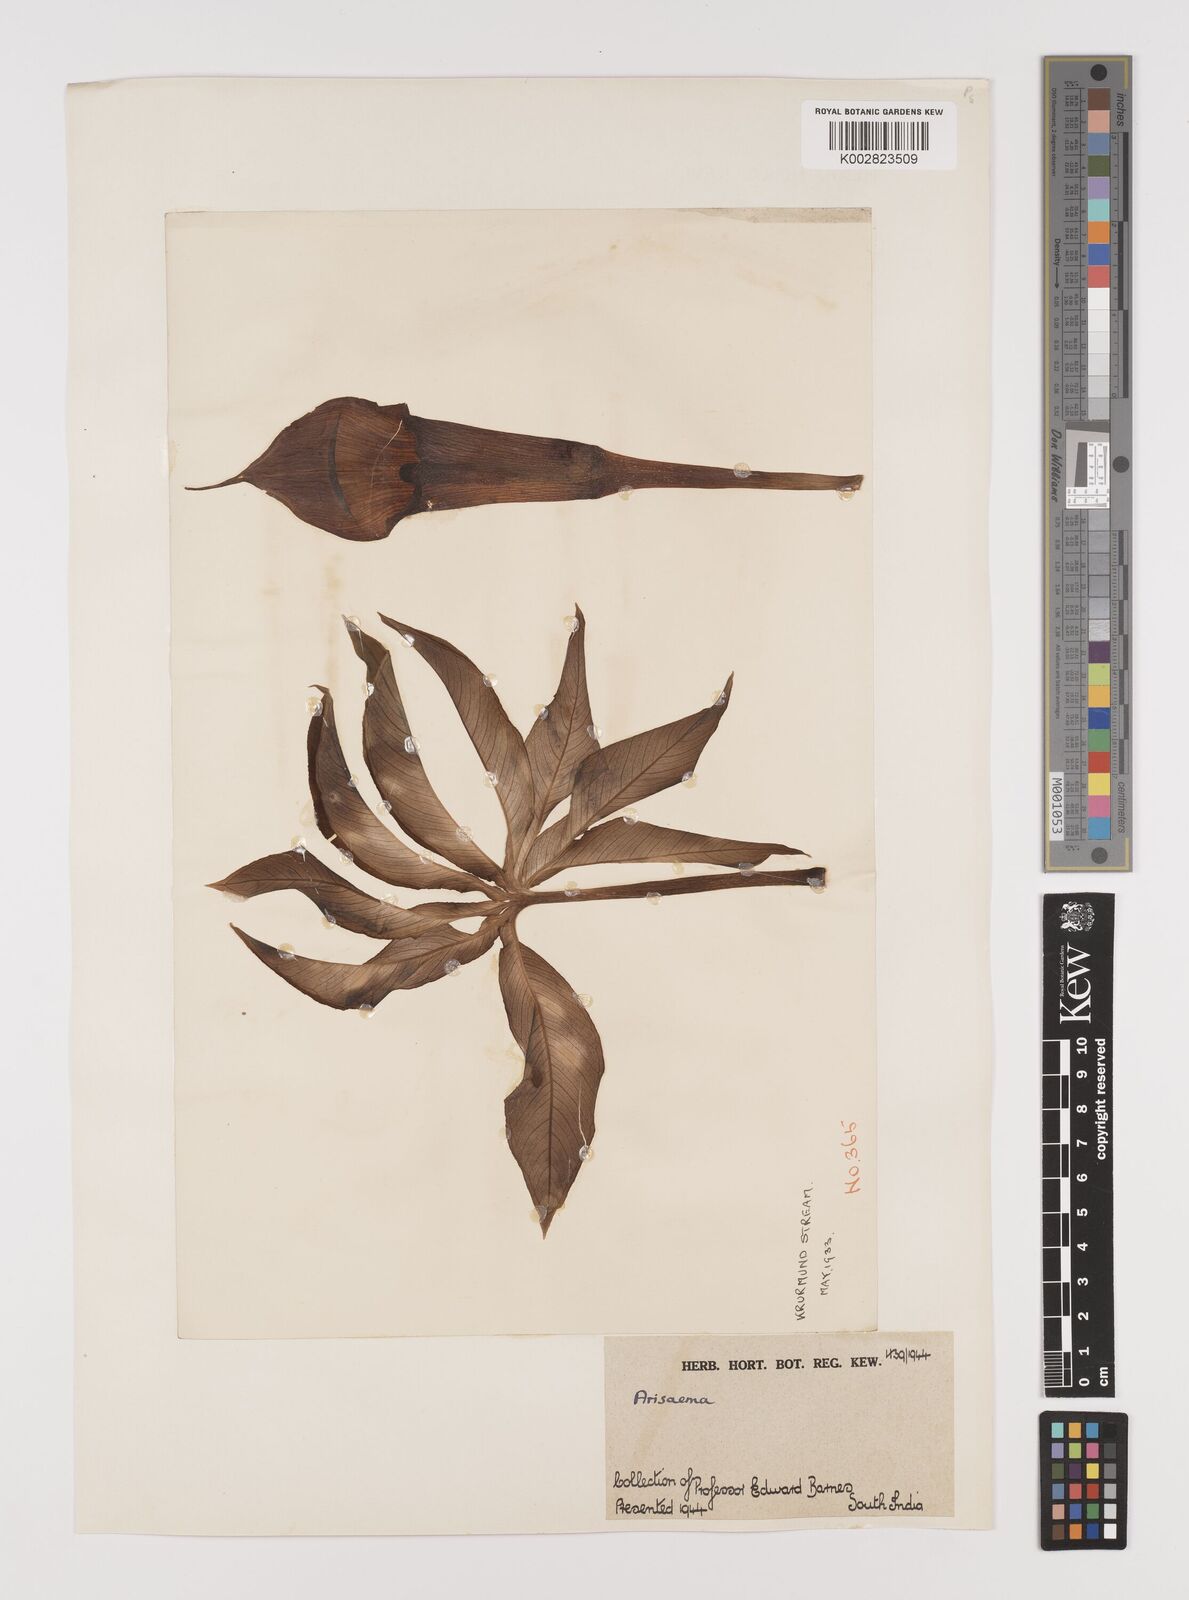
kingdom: Plantae
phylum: Tracheophyta
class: Liliopsida
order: Alismatales
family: Araceae
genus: Arisaema
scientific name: Arisaema
